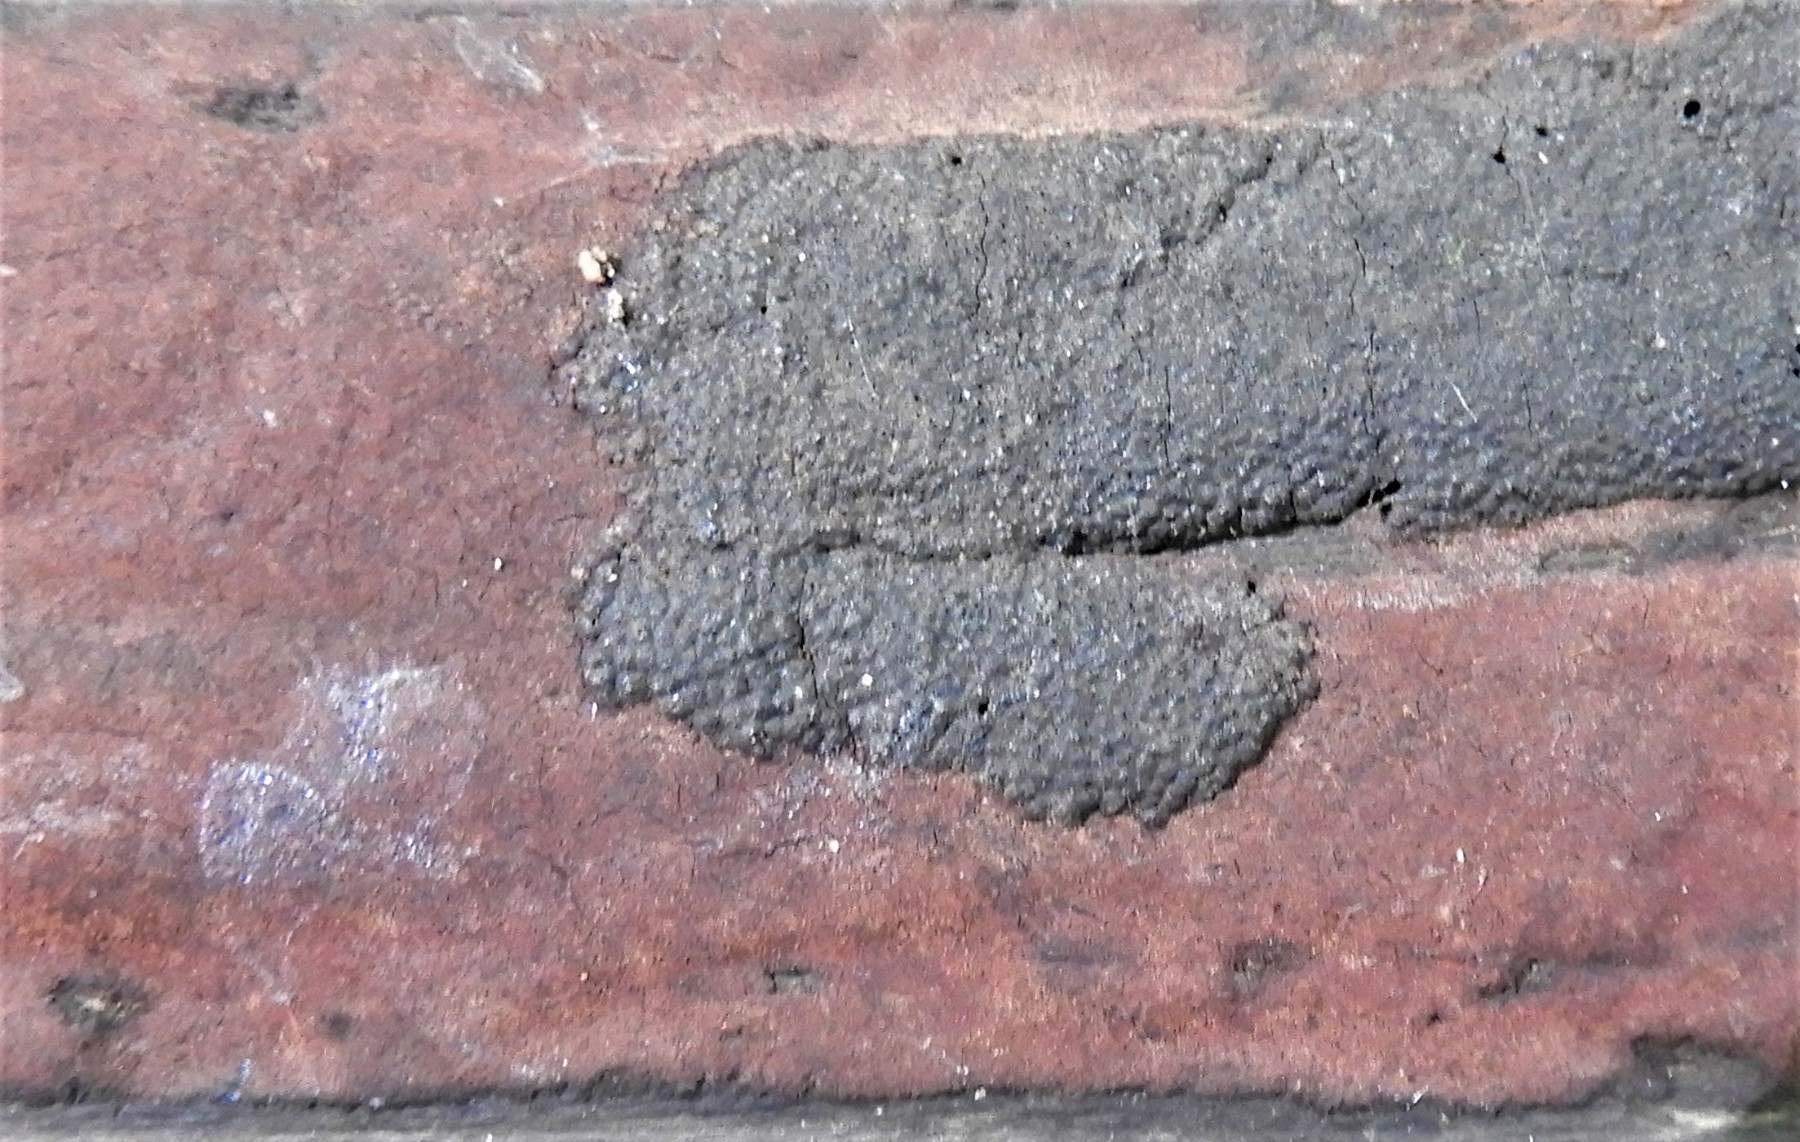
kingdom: Fungi
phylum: Ascomycota
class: Sordariomycetes
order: Xylariales
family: Hypoxylaceae
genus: Hypoxylon
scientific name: Hypoxylon macrocarpum
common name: skorpe-kulbær
